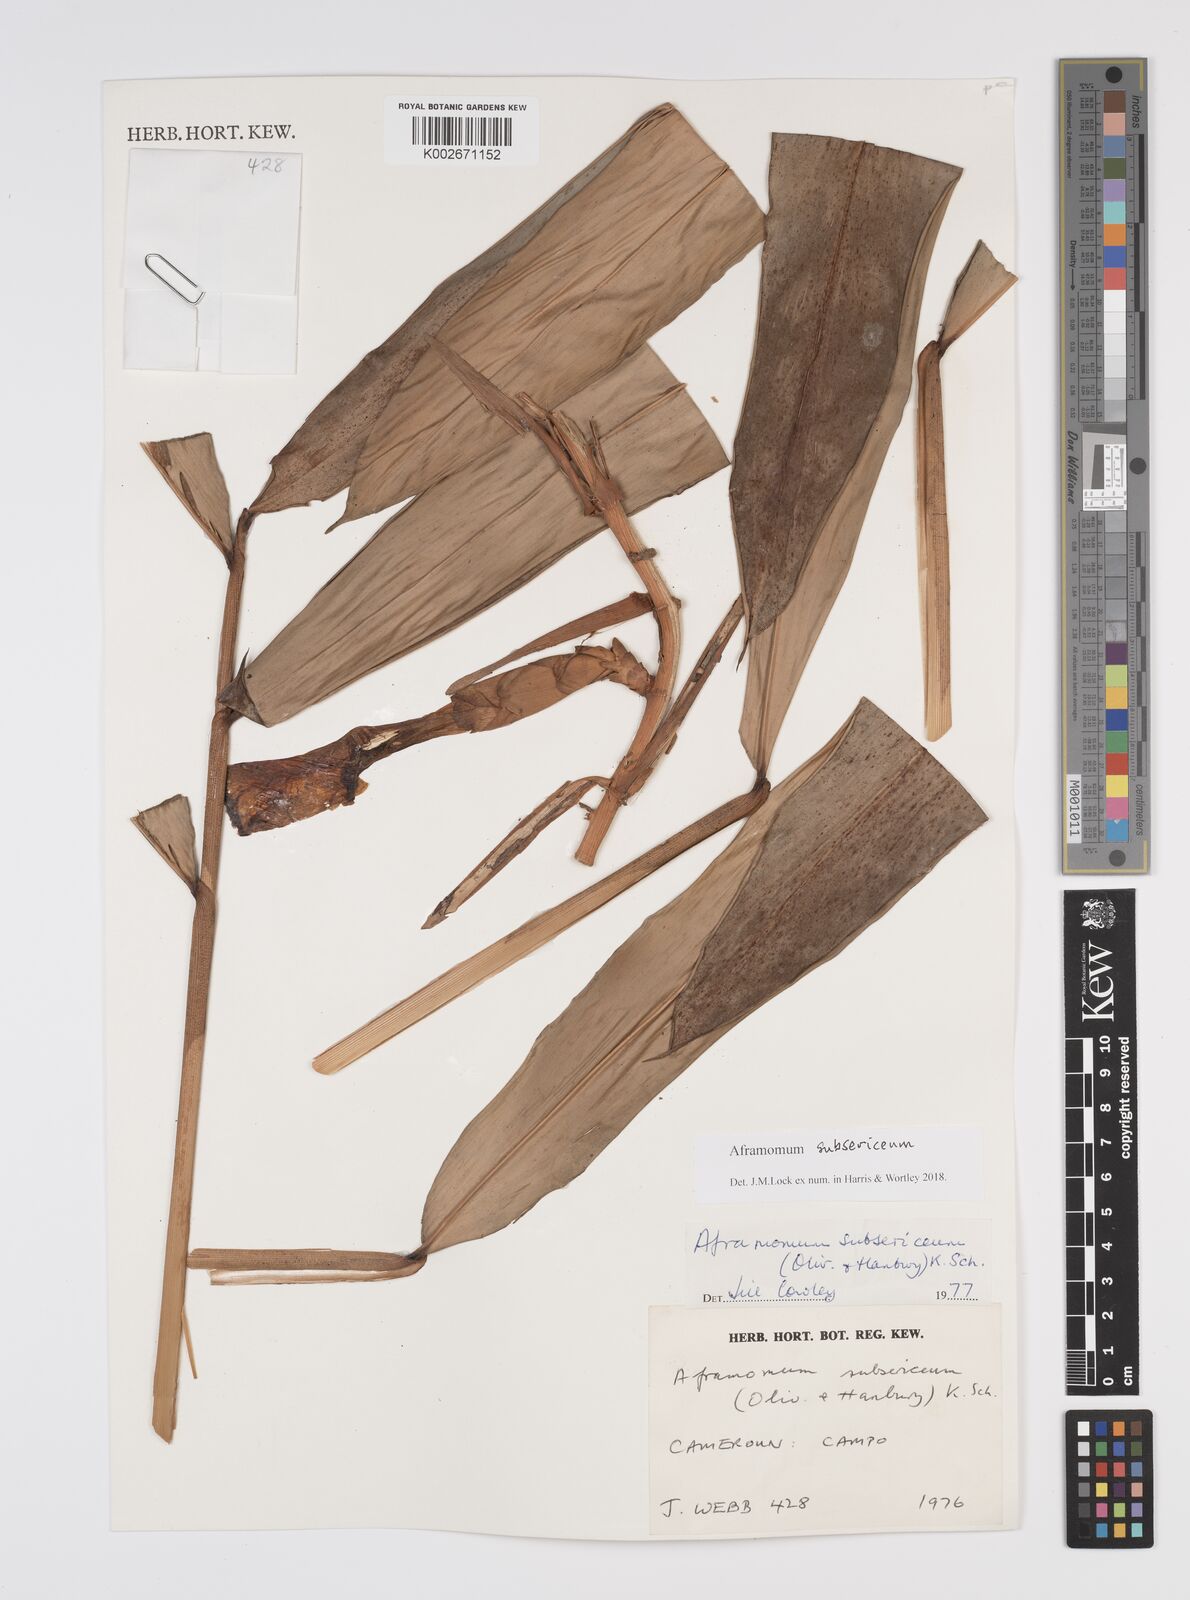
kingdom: Plantae
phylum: Tracheophyta
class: Liliopsida
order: Zingiberales
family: Zingiberaceae
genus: Aframomum
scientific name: Aframomum subsericeum
